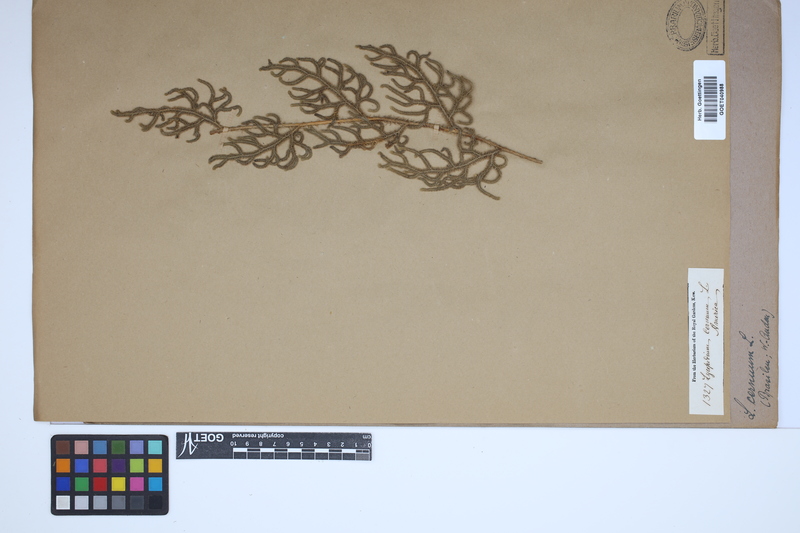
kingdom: Plantae
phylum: Tracheophyta
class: Lycopodiopsida
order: Lycopodiales
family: Lycopodiaceae
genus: Palhinhaea
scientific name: Palhinhaea cernua
